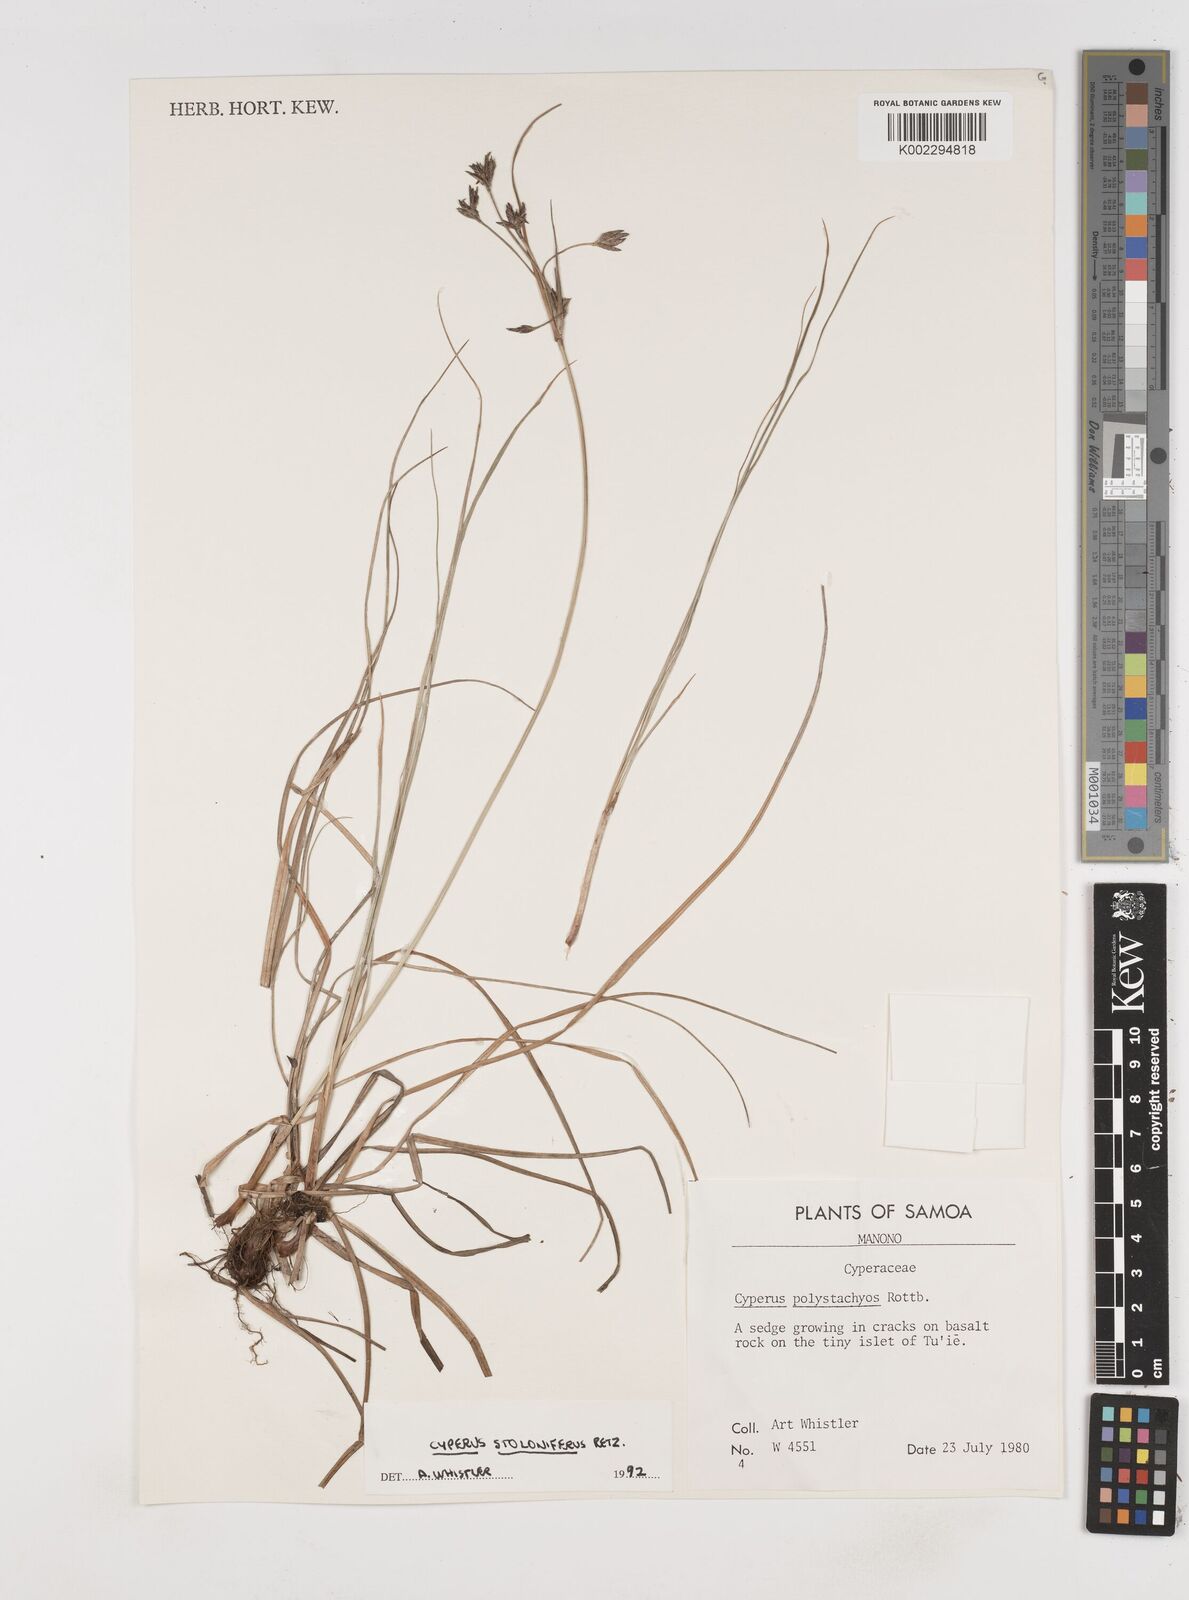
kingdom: Plantae
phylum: Tracheophyta
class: Liliopsida
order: Poales
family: Cyperaceae
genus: Cyperus
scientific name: Cyperus stolonifer
